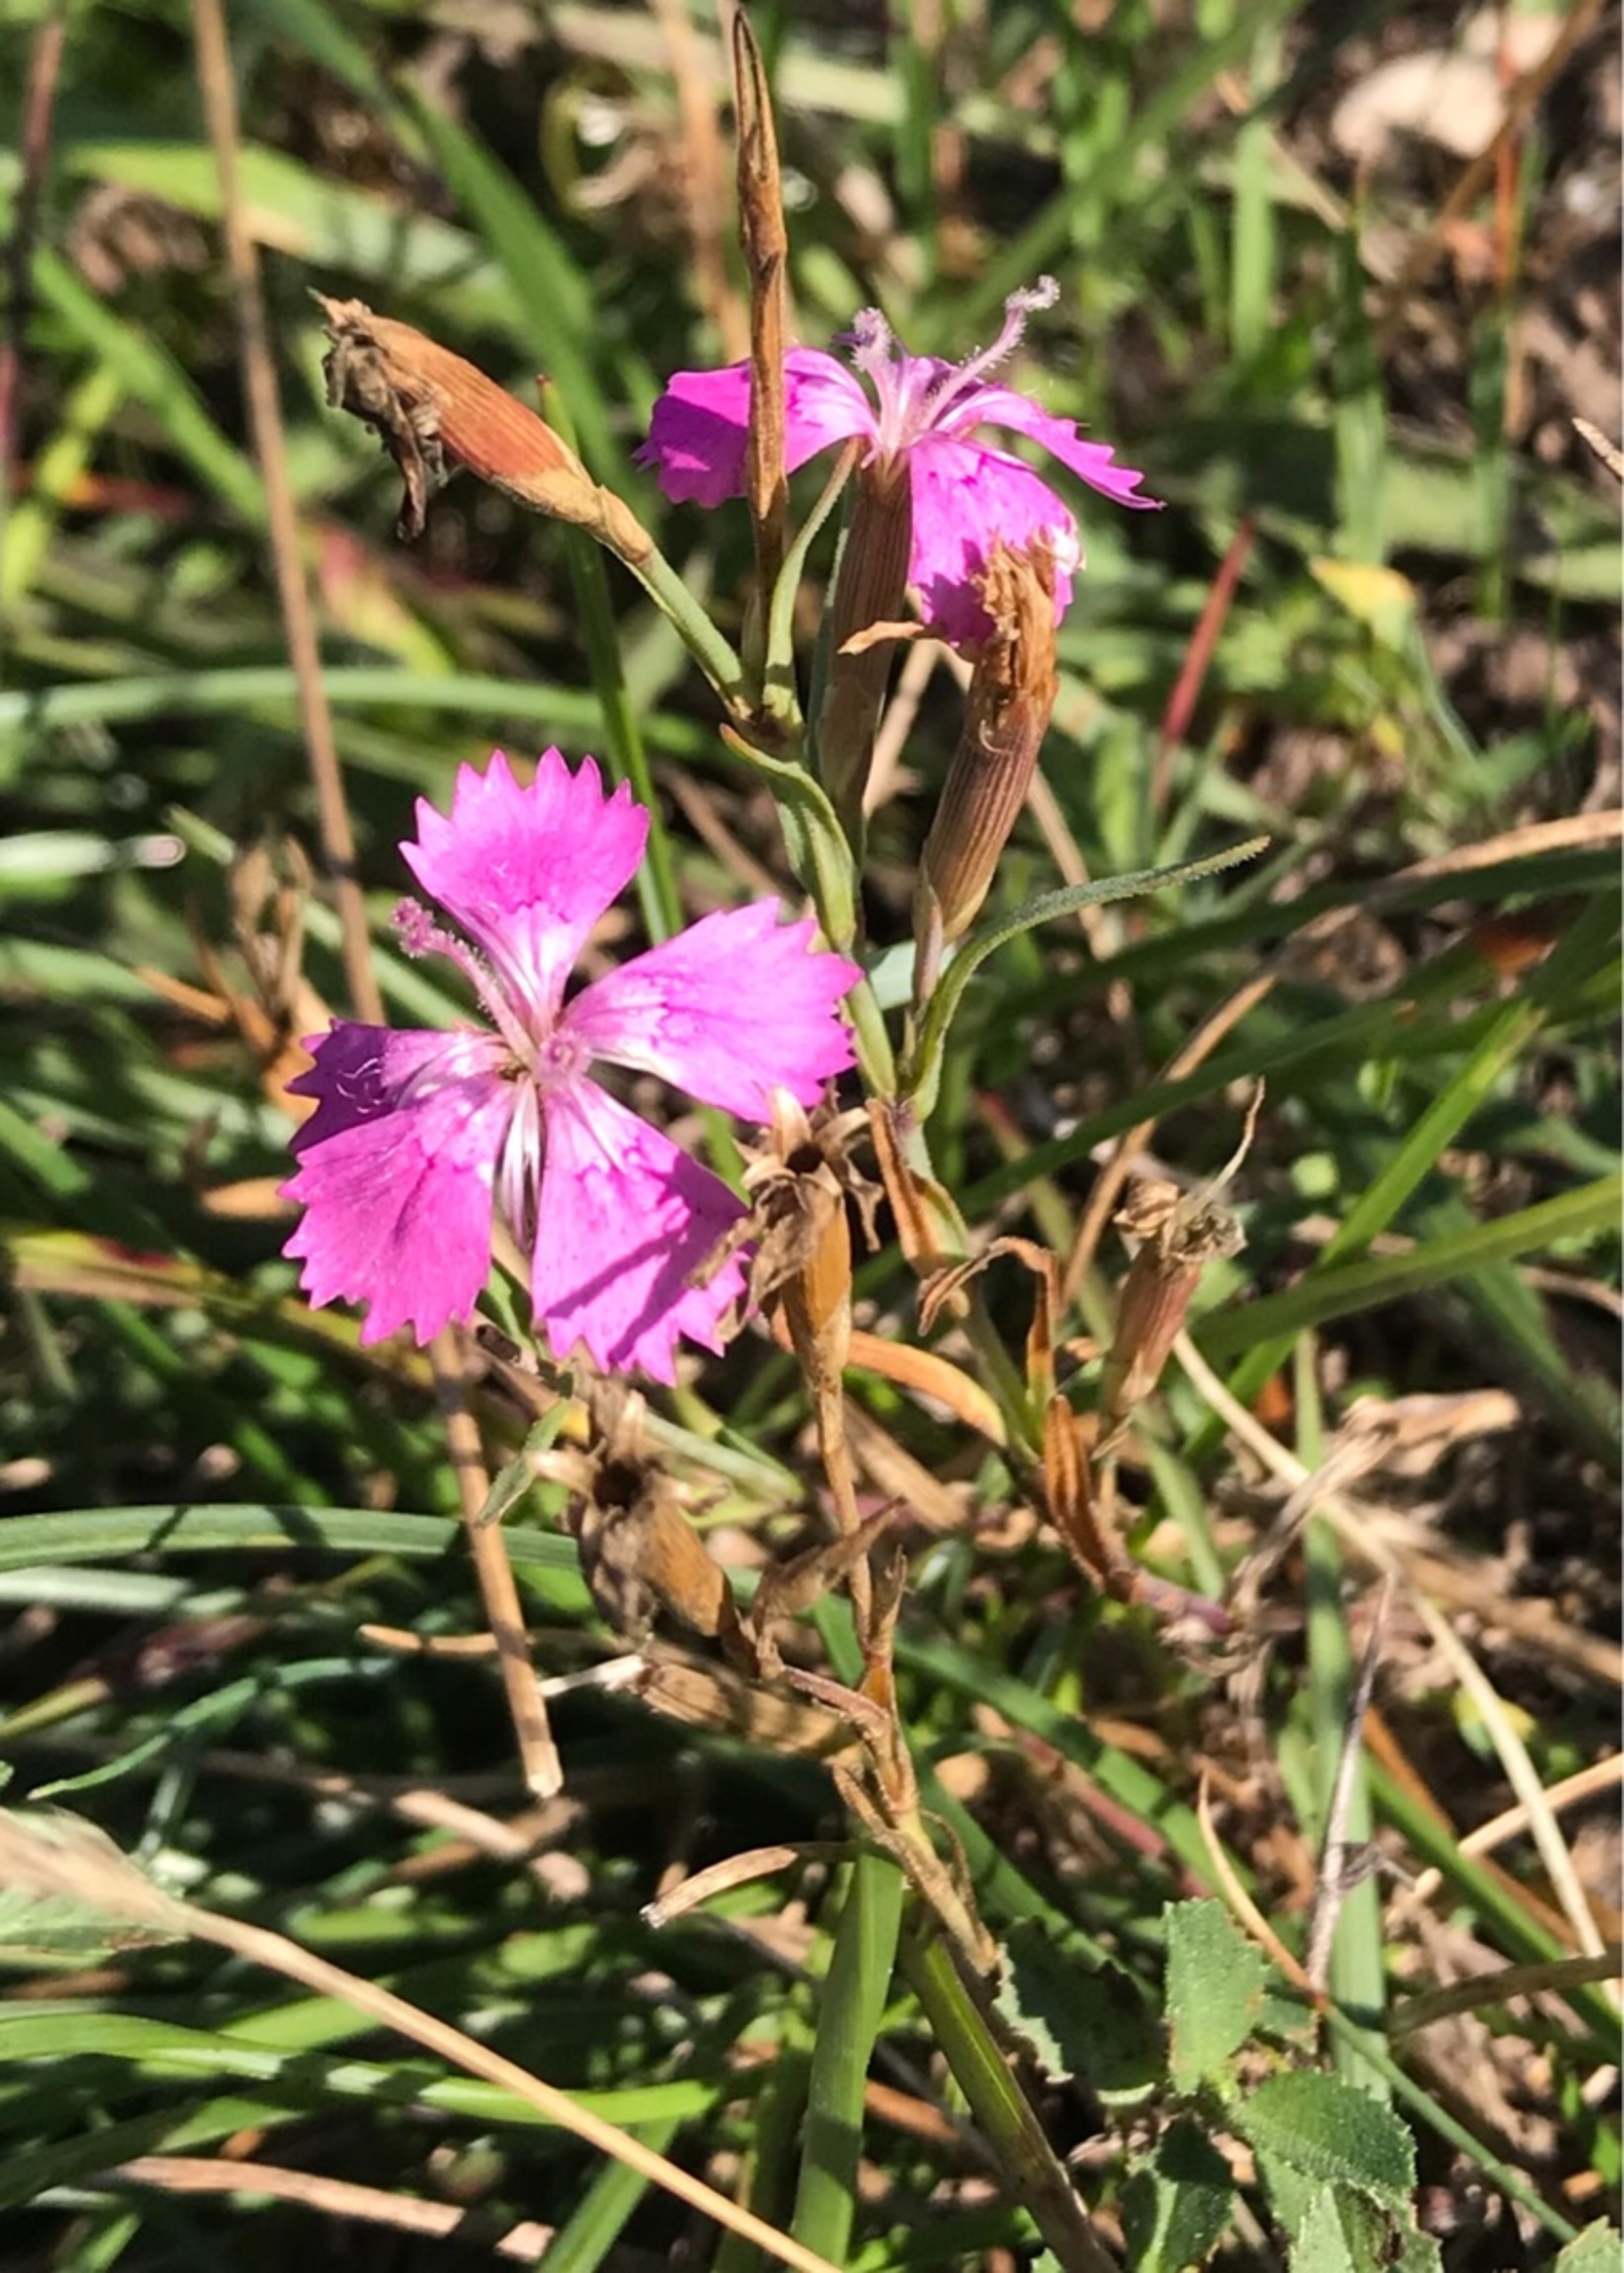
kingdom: Plantae
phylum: Tracheophyta
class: Magnoliopsida
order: Caryophyllales
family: Caryophyllaceae
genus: Dianthus
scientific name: Dianthus deltoides
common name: Bakke-nellike
